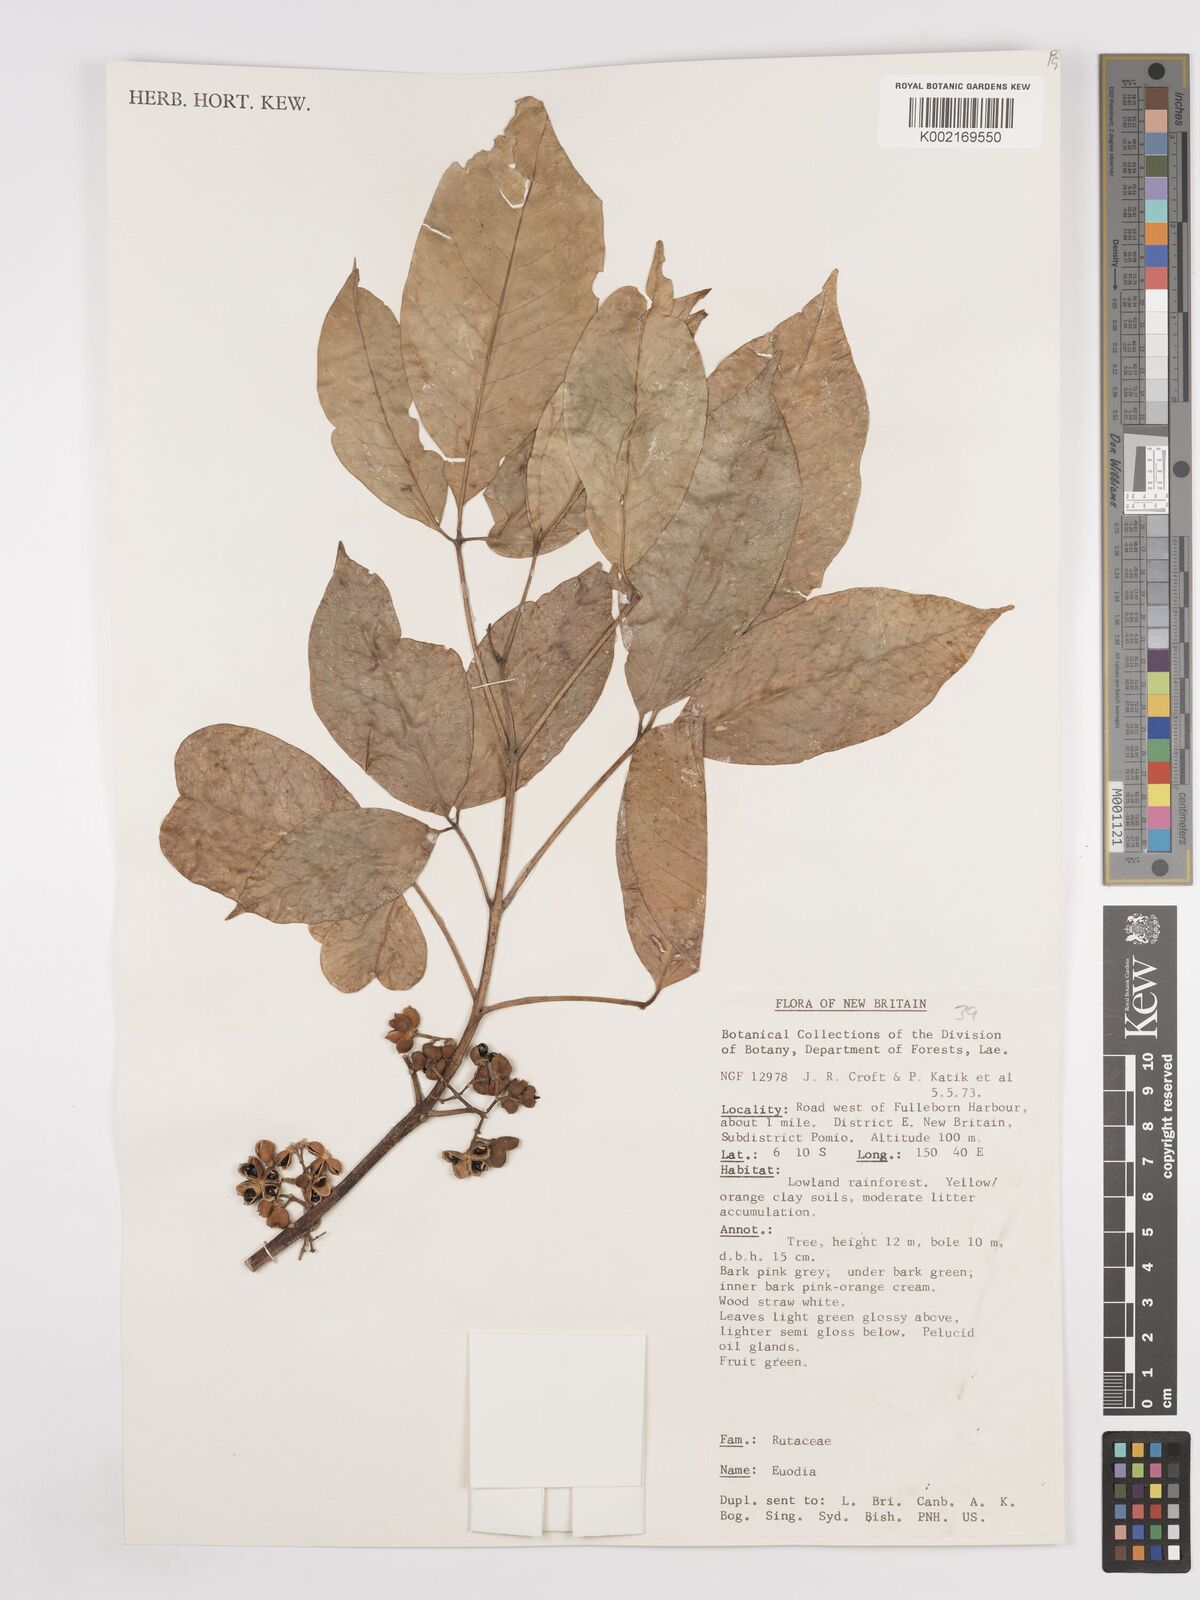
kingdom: Plantae
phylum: Tracheophyta
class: Magnoliopsida
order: Sapindales
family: Rutaceae
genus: Euodia
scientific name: Euodia
